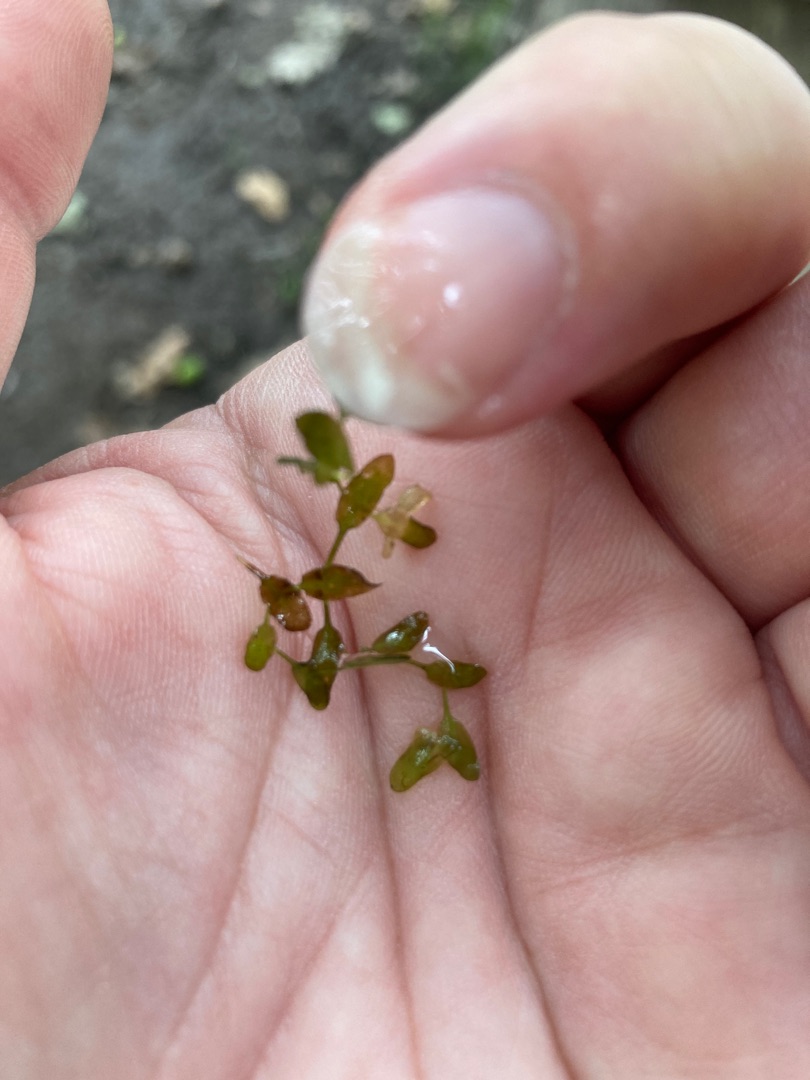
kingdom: Plantae
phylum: Tracheophyta
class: Liliopsida
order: Alismatales
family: Araceae
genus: Lemna
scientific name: Lemna trisulca
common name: Kors-andemad
